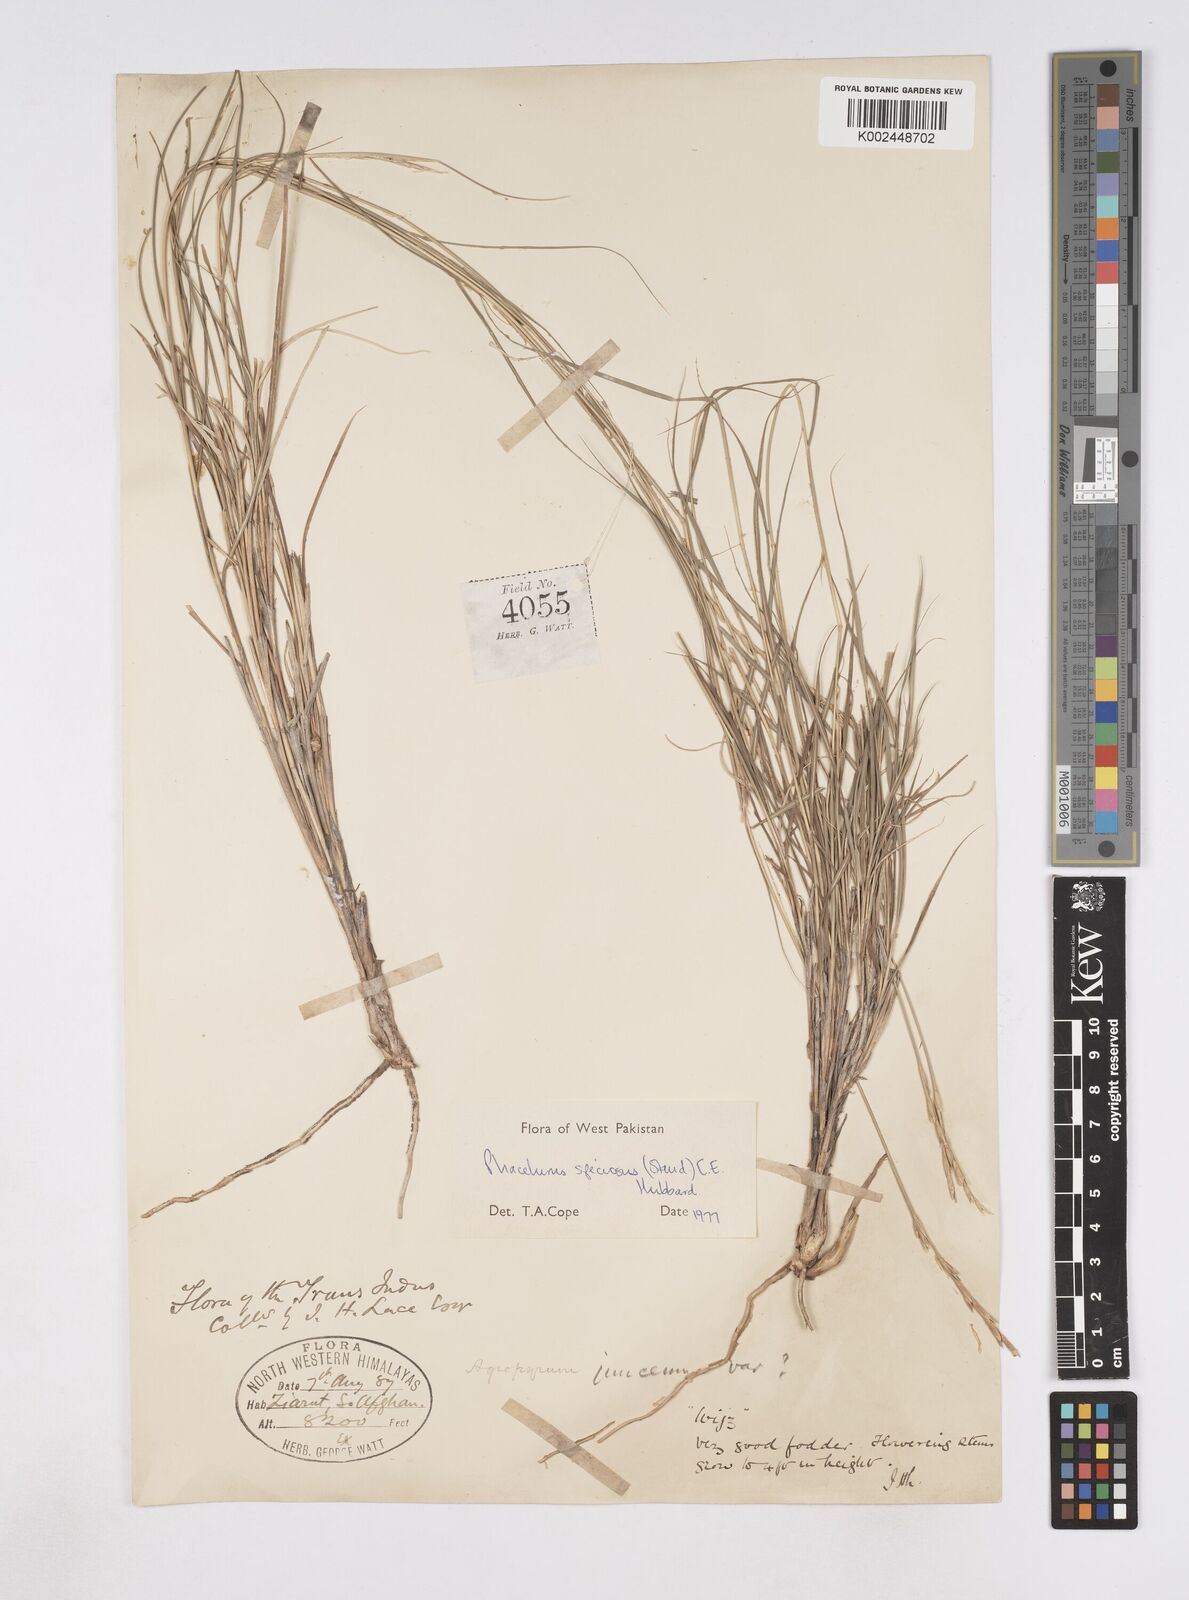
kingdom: Plantae
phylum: Tracheophyta
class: Liliopsida
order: Poales
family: Poaceae
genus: Phacelurus
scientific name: Phacelurus speciosus
